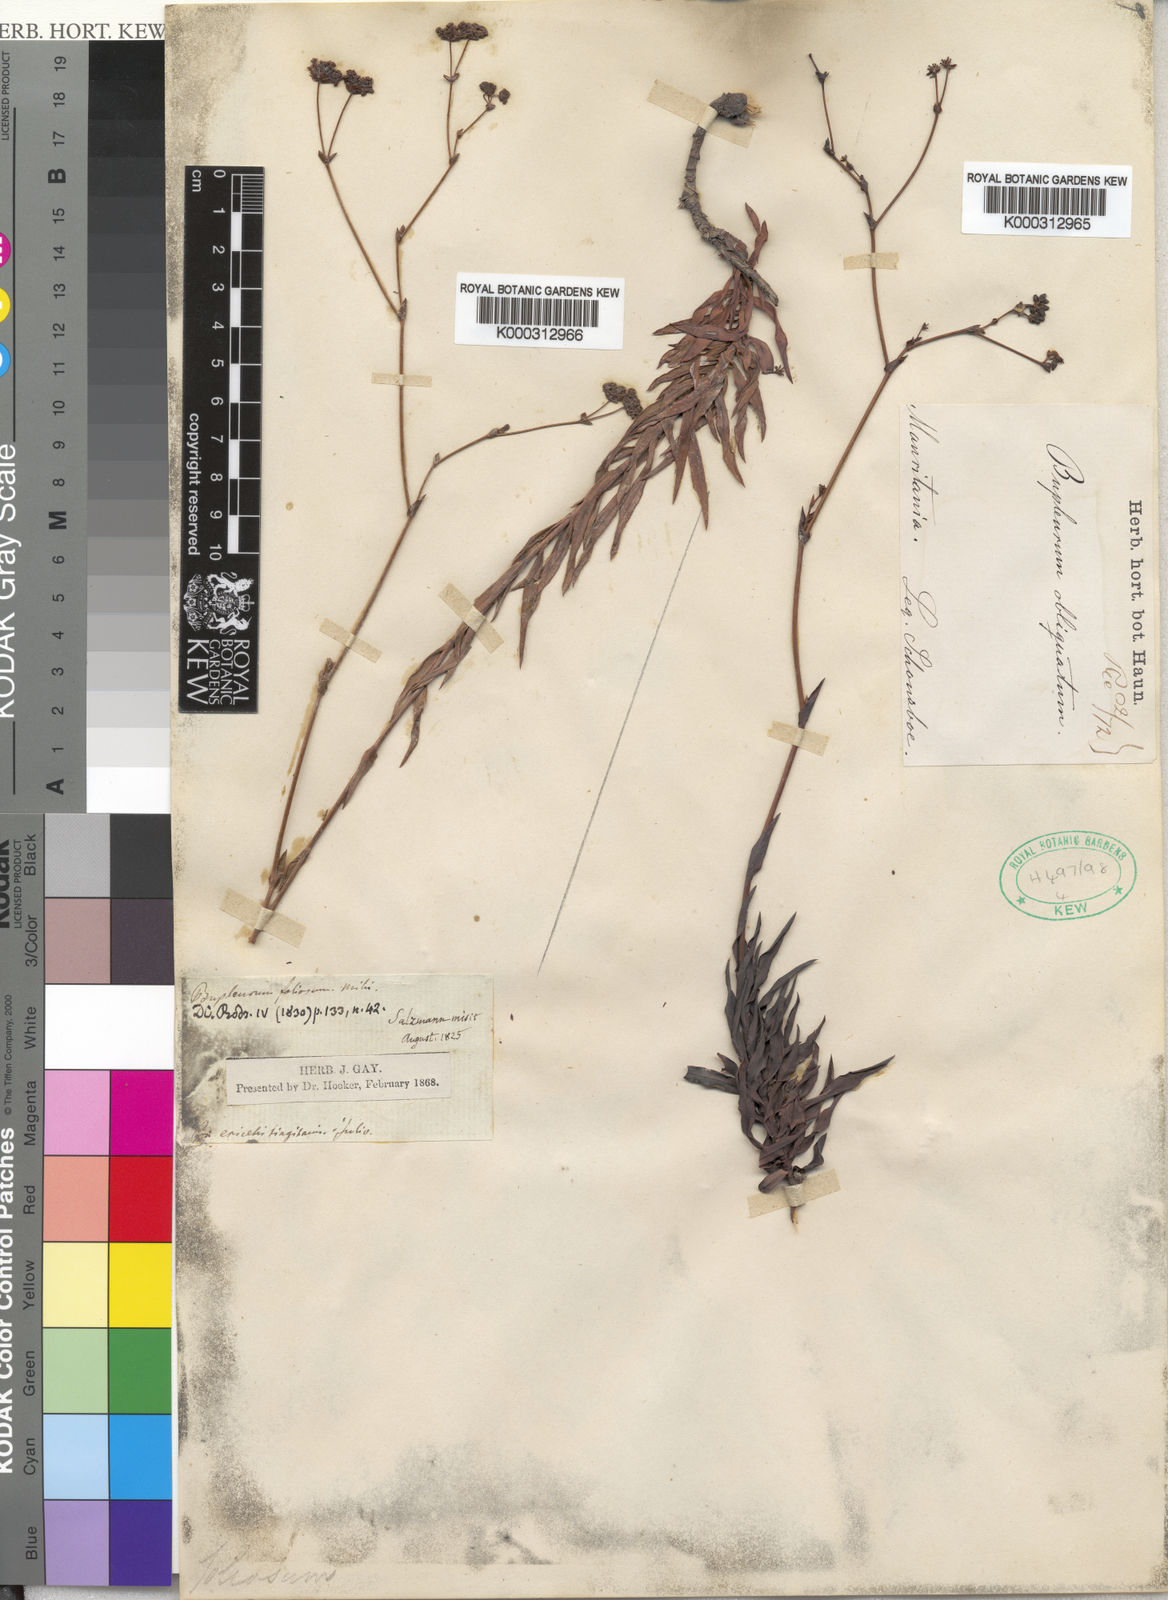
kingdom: Plantae
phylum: Tracheophyta
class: Magnoliopsida
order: Apiales
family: Apiaceae
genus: Bupleurum
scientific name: Bupleurum foliosum
